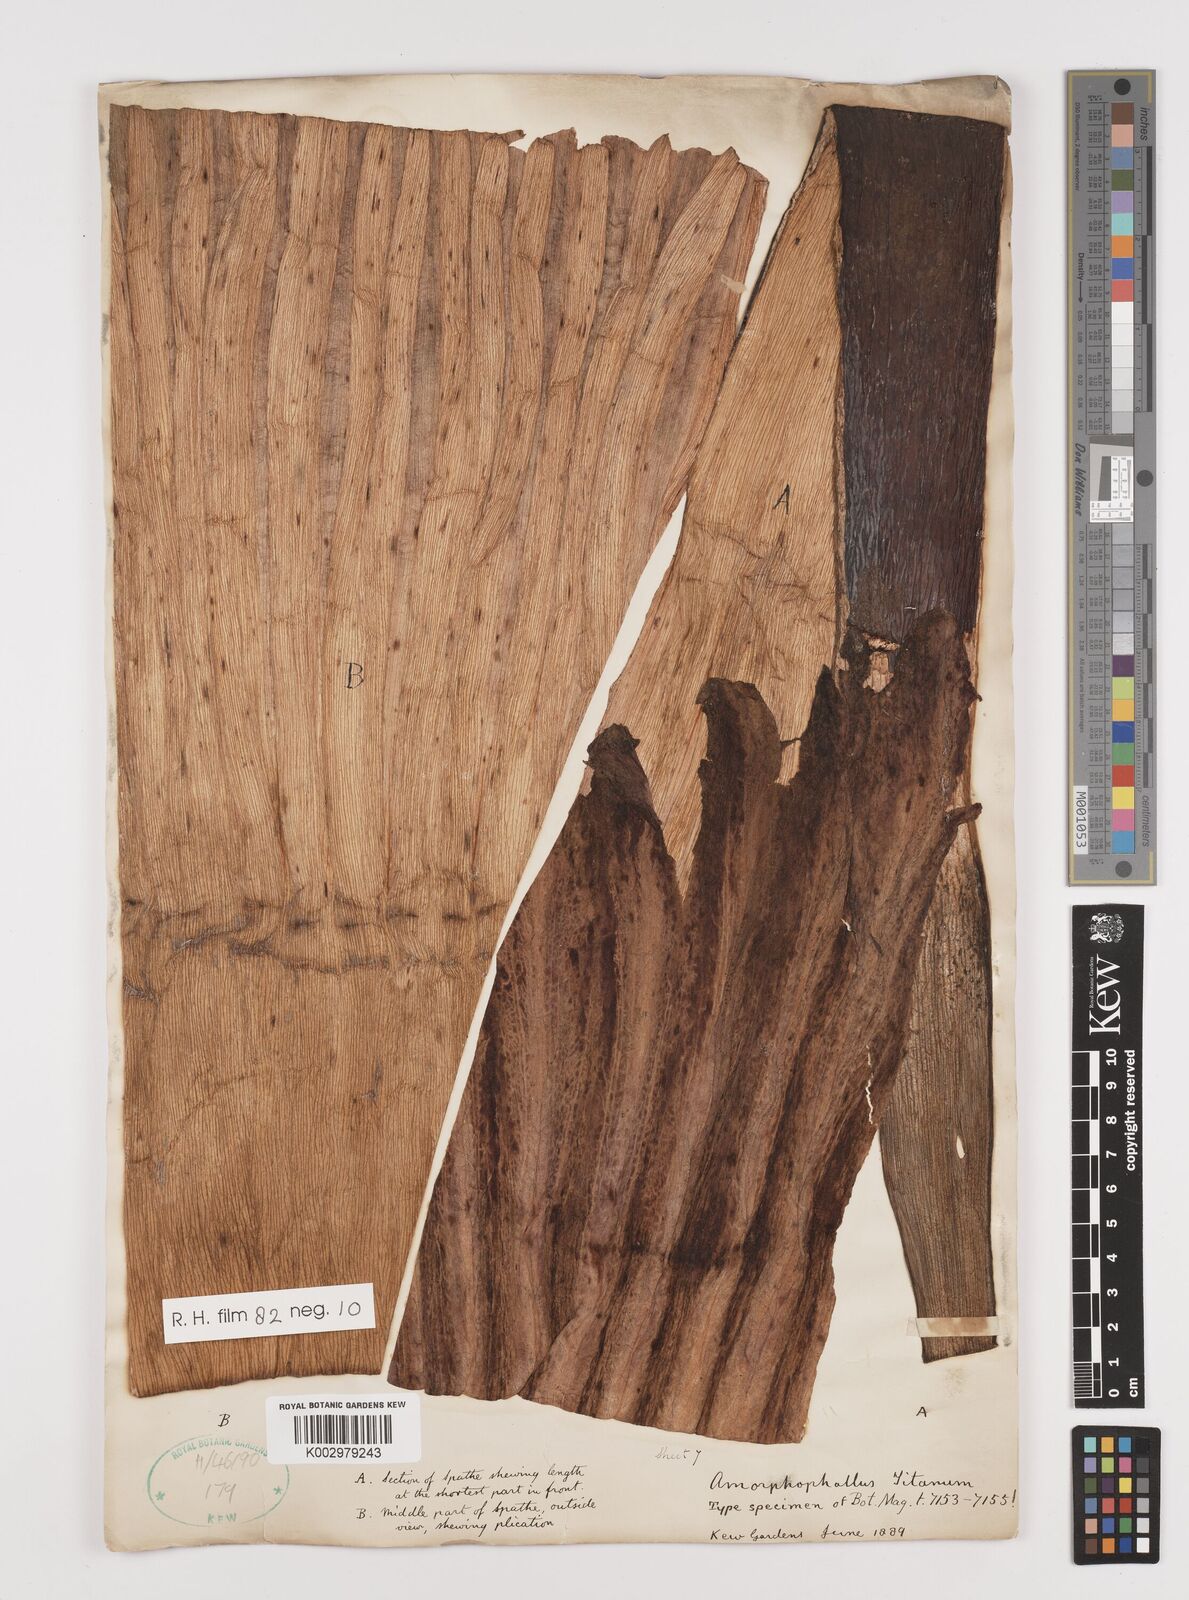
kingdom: Plantae
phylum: Tracheophyta
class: Liliopsida
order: Alismatales
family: Araceae
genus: Amorphophallus
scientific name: Amorphophallus titanum
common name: Titan arum
